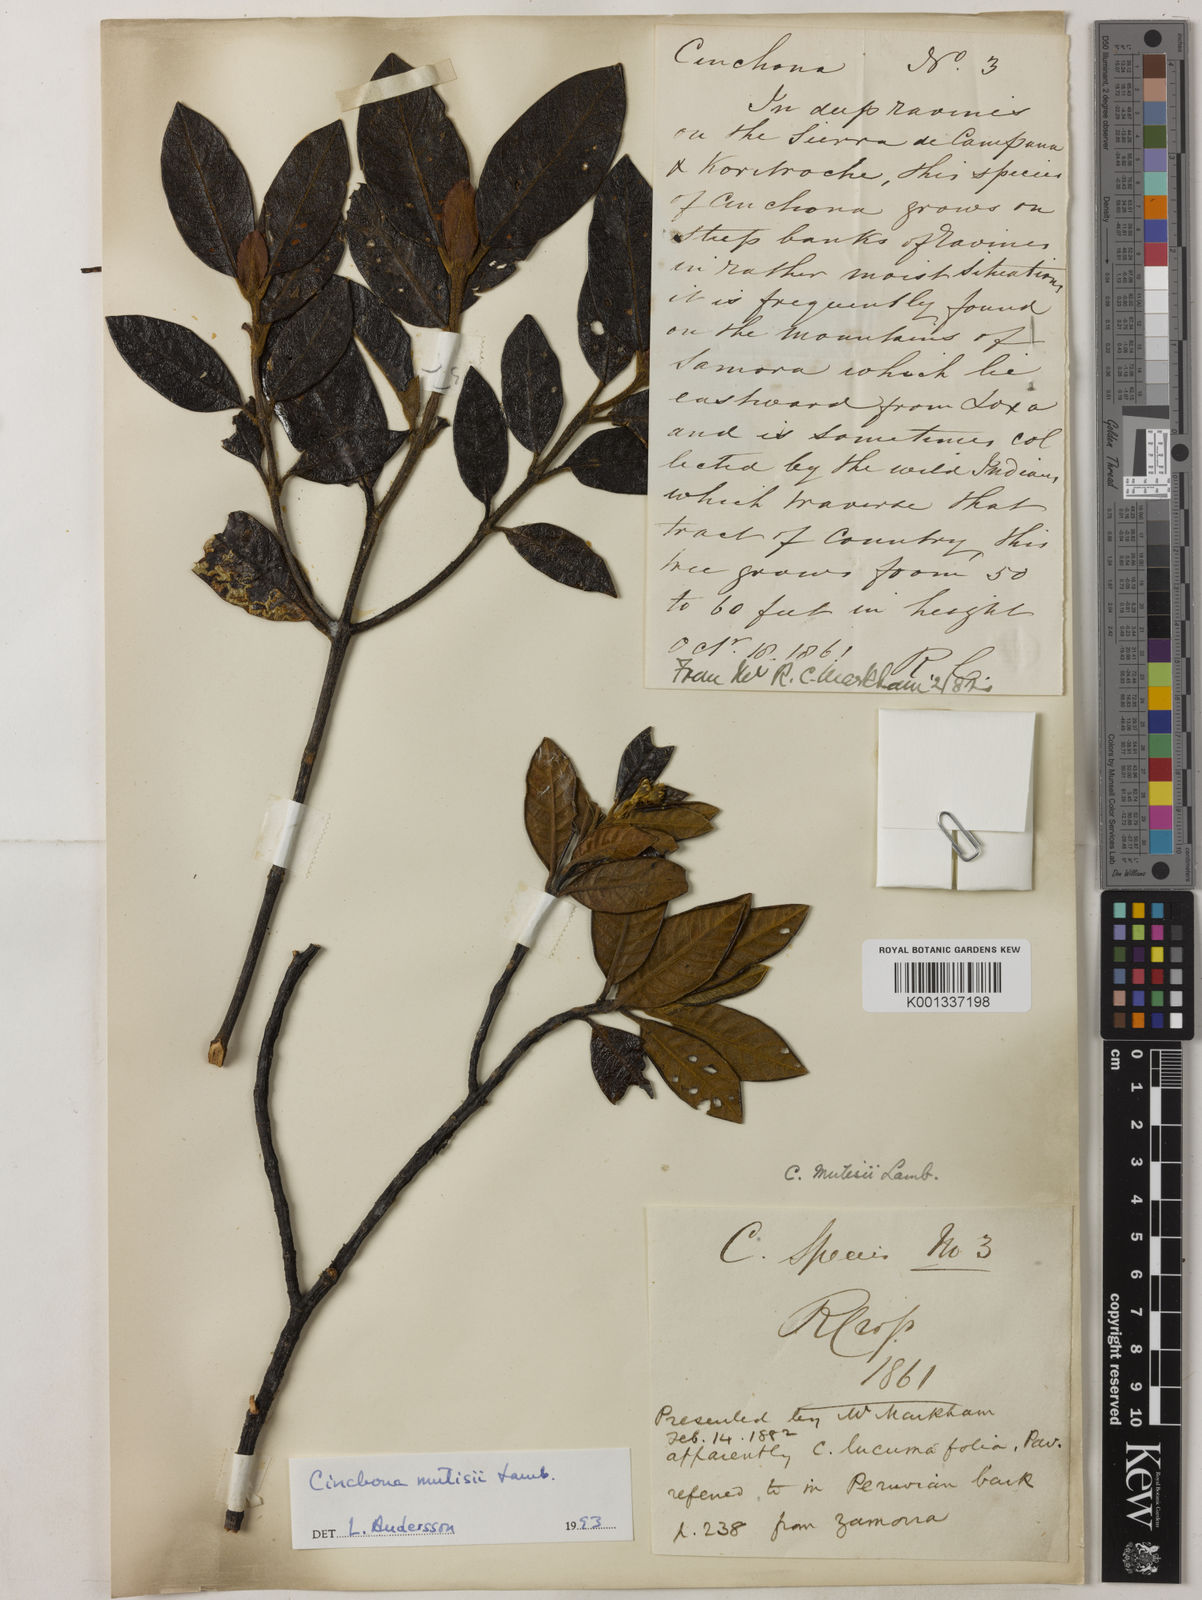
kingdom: Plantae
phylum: Tracheophyta
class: Magnoliopsida
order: Gentianales
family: Rubiaceae
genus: Cinchona
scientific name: Cinchona mutisii
